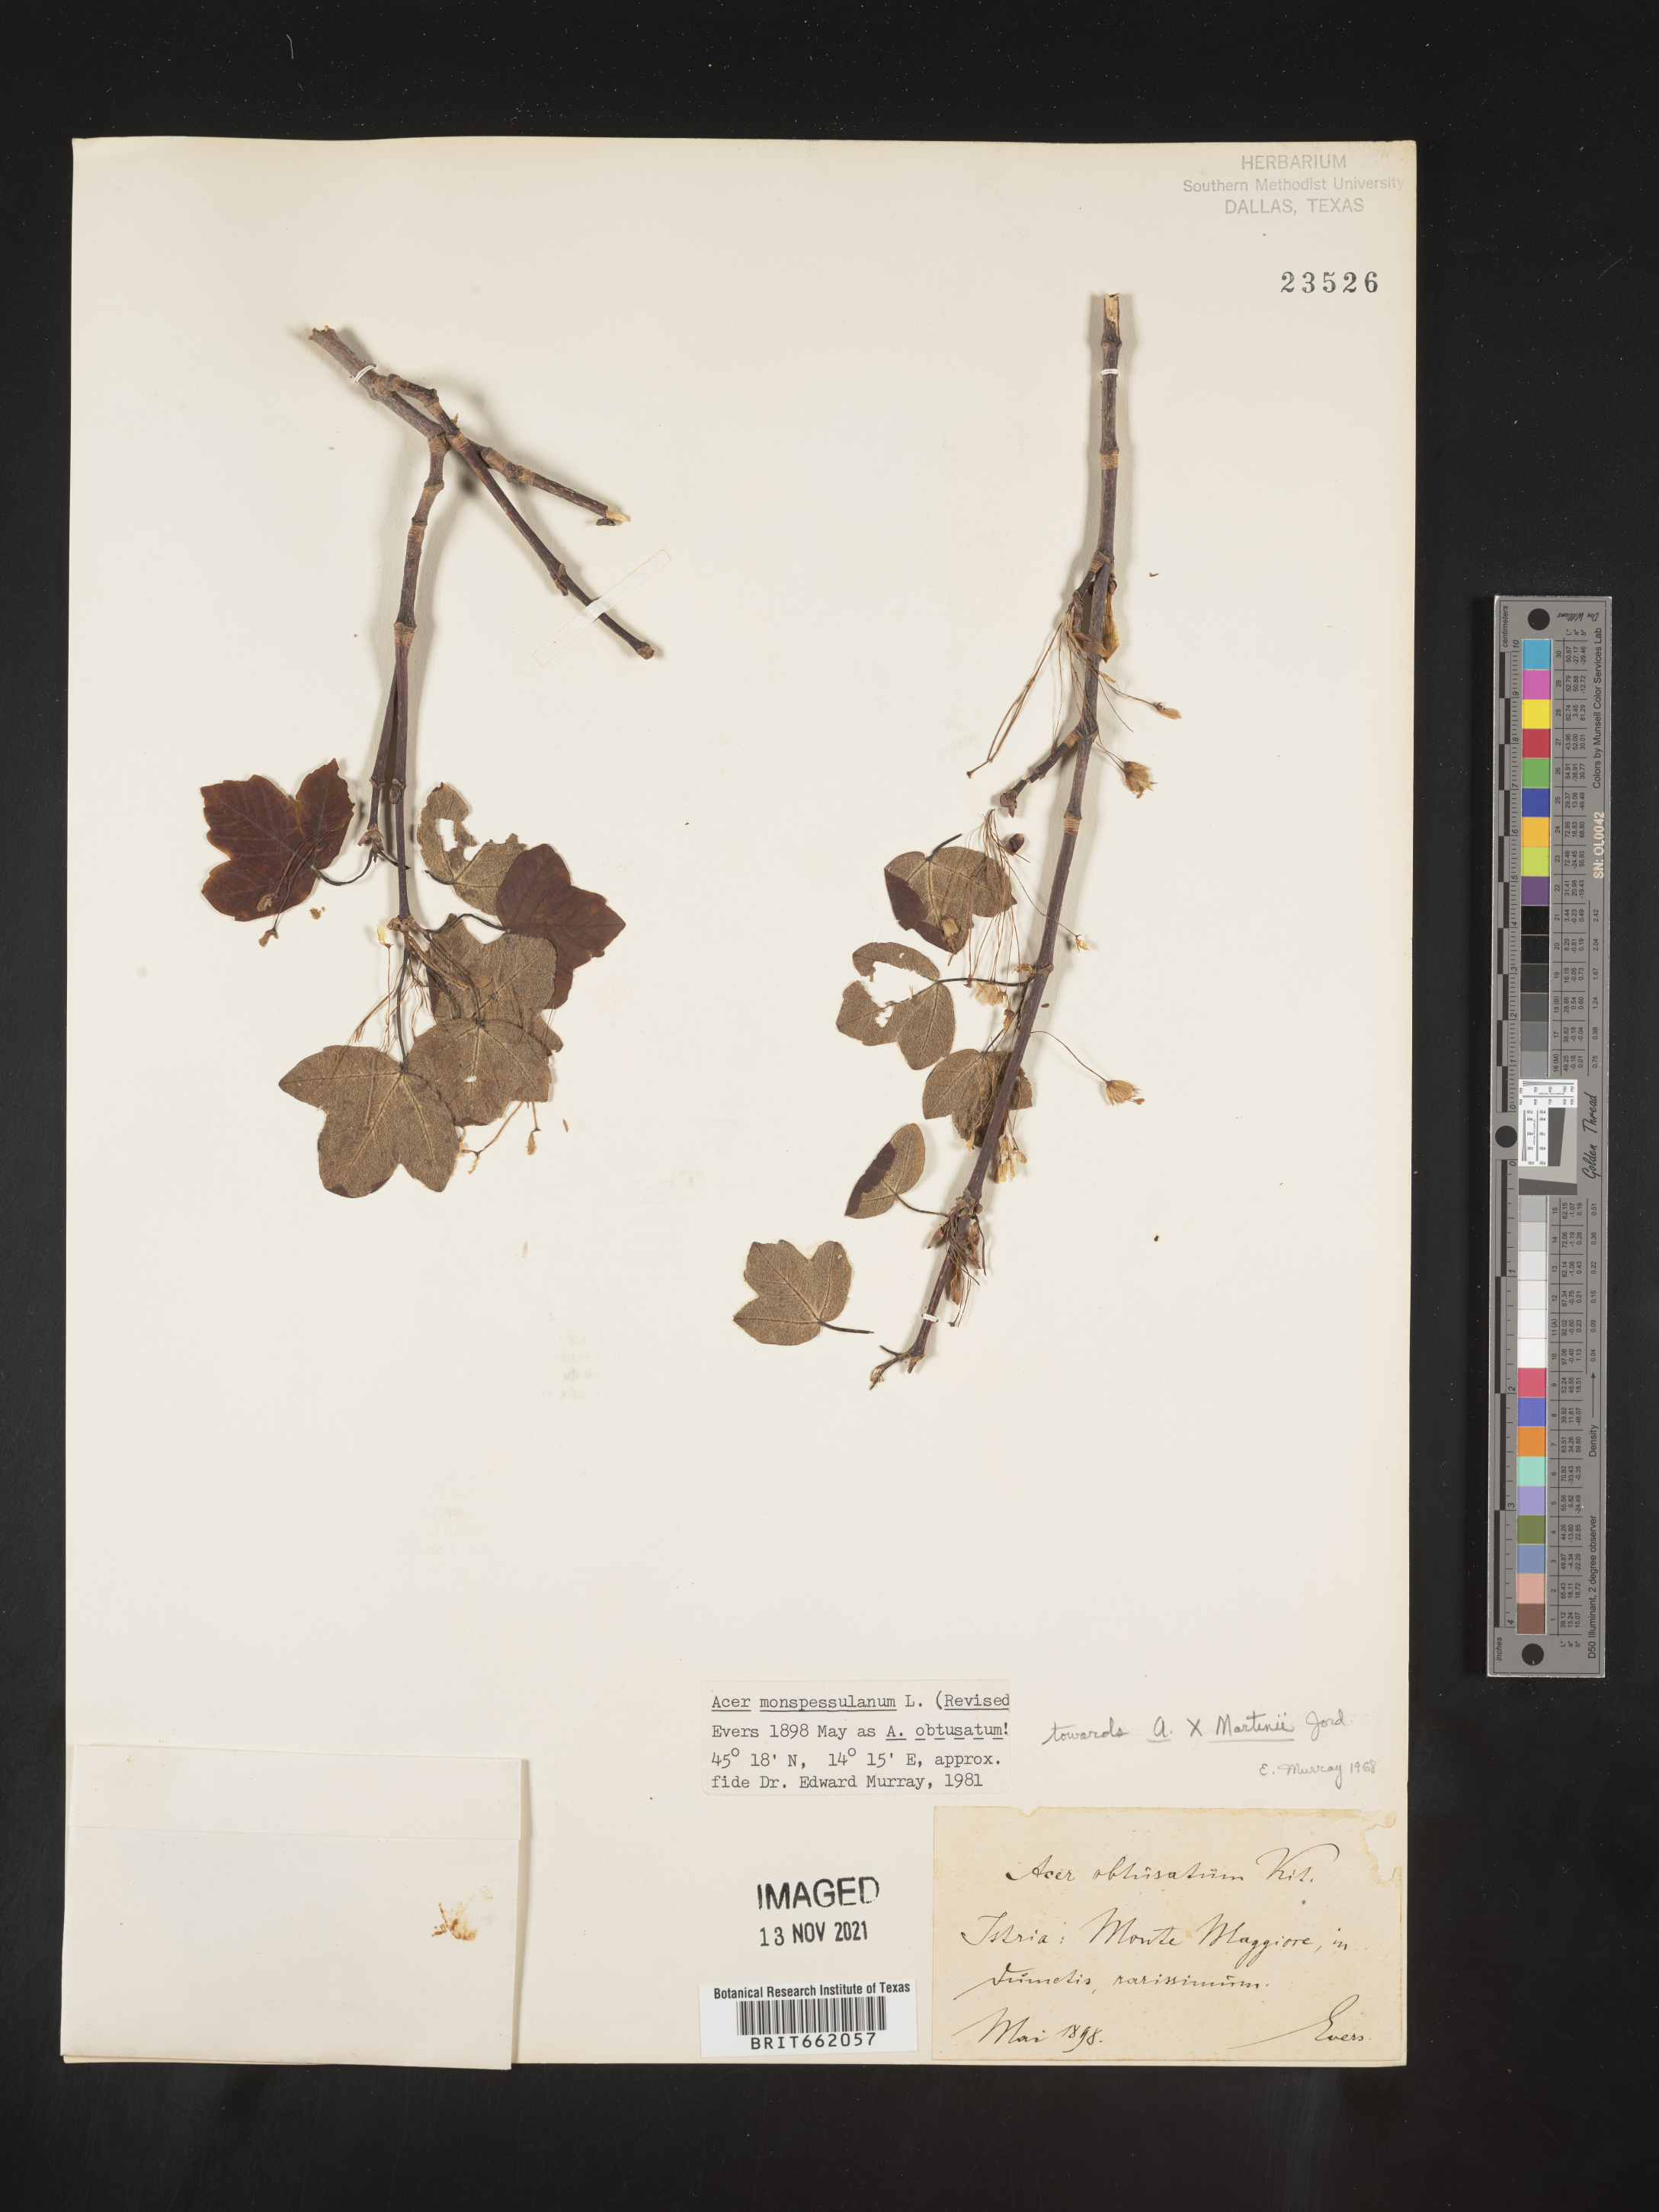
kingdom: Plantae
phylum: Tracheophyta
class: Magnoliopsida
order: Sapindales
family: Sapindaceae
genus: Acer
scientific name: Acer
